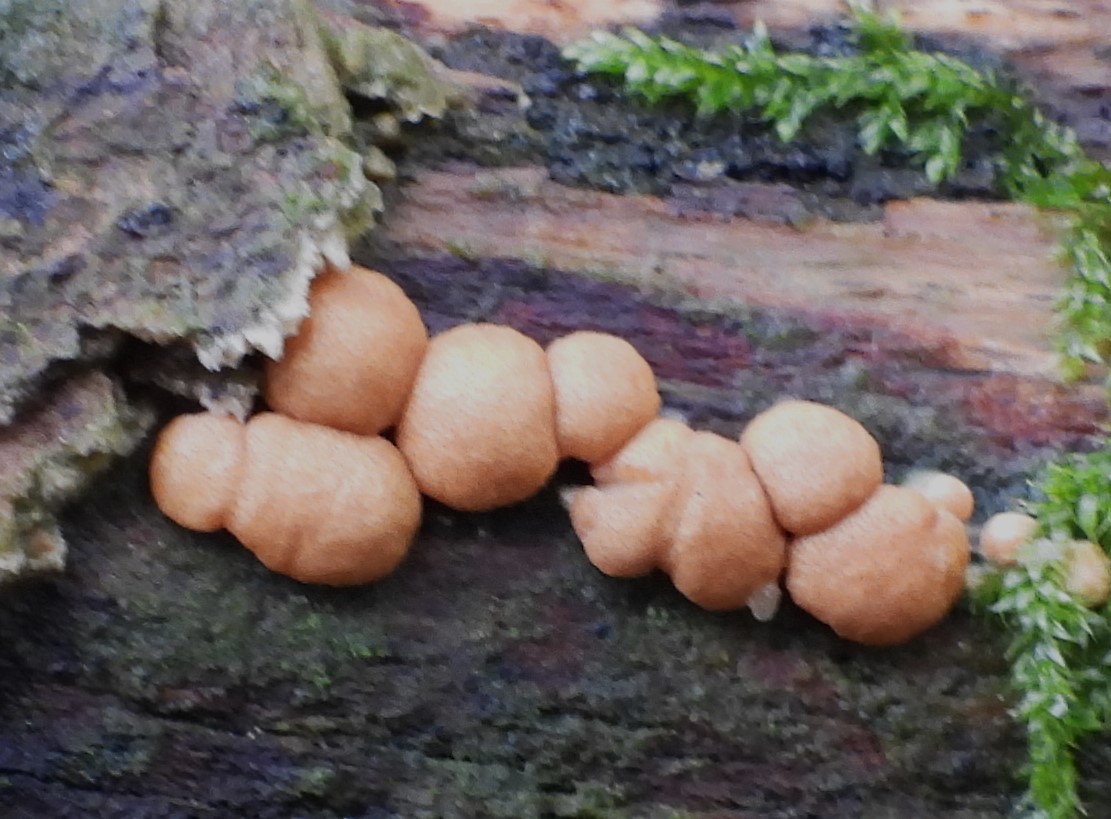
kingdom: Fungi
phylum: Ascomycota
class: Sordariomycetes
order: Hypocreales
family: Hypocreaceae
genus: Trichoderma
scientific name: Trichoderma europaeum
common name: rosabrun kødkerne
